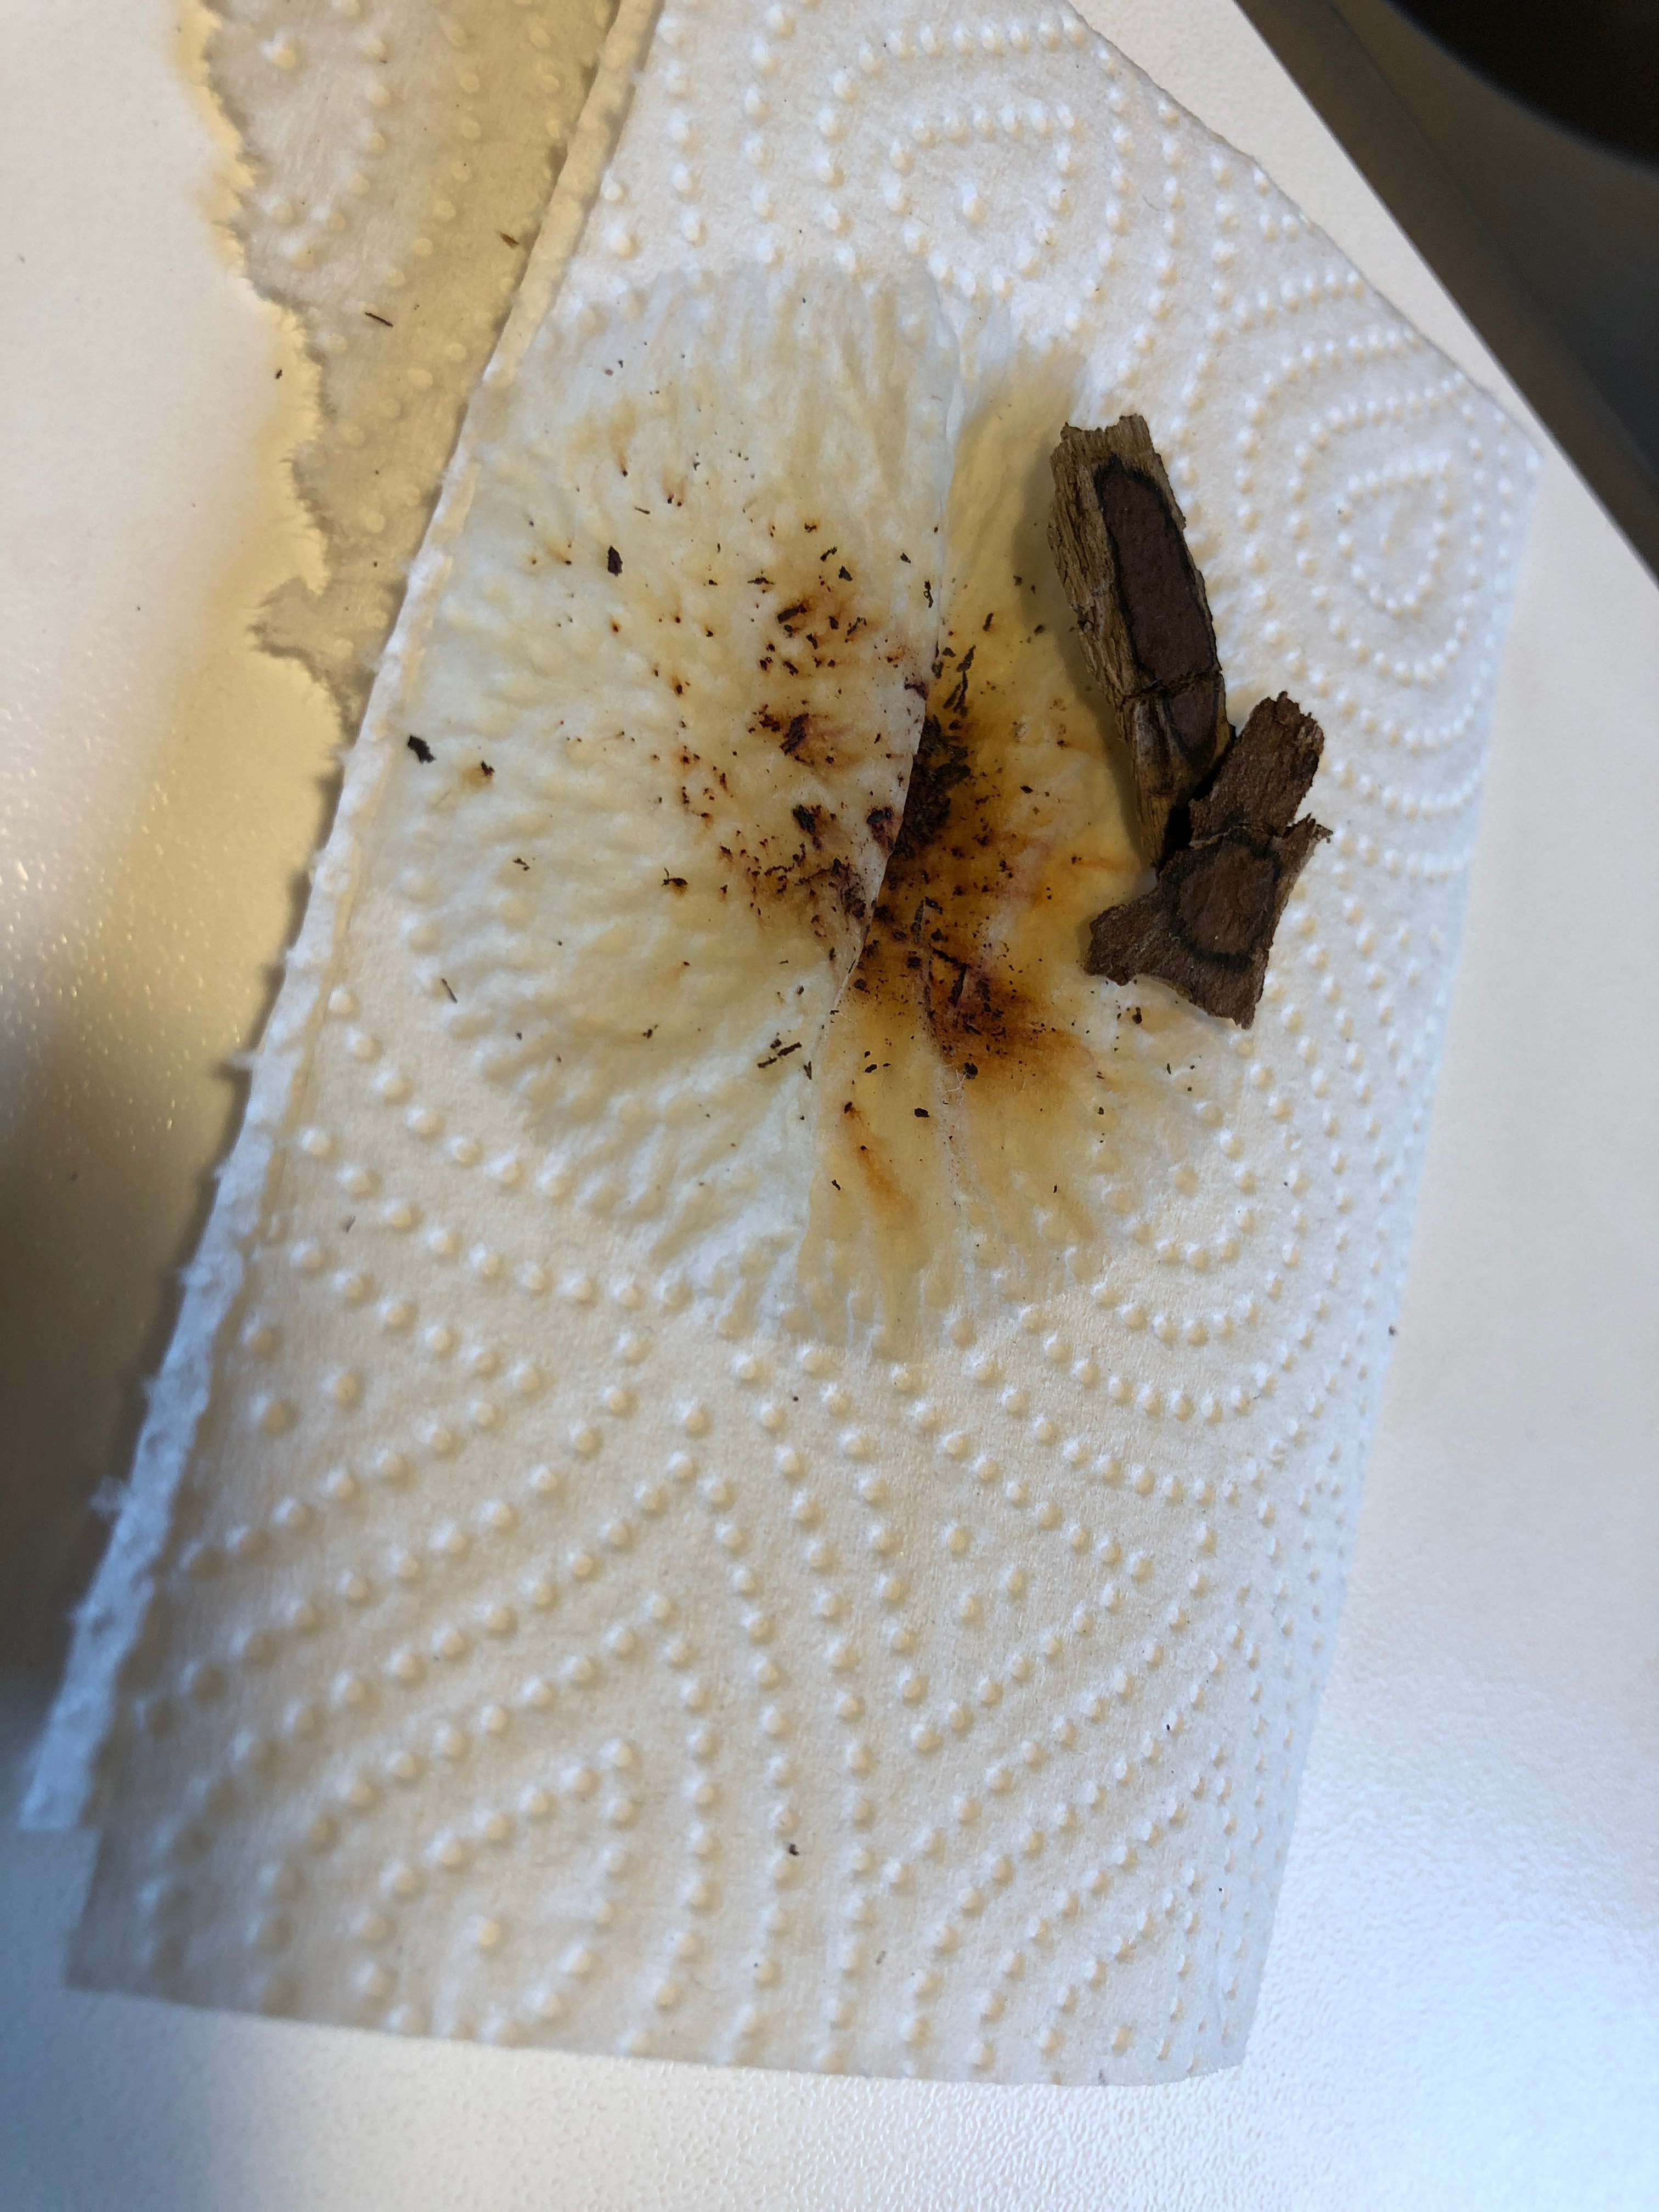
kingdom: Fungi
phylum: Ascomycota
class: Sordariomycetes
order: Xylariales
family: Hypoxylaceae
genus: Hypoxylon
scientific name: Hypoxylon petriniae
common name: nedsænket kulbær
